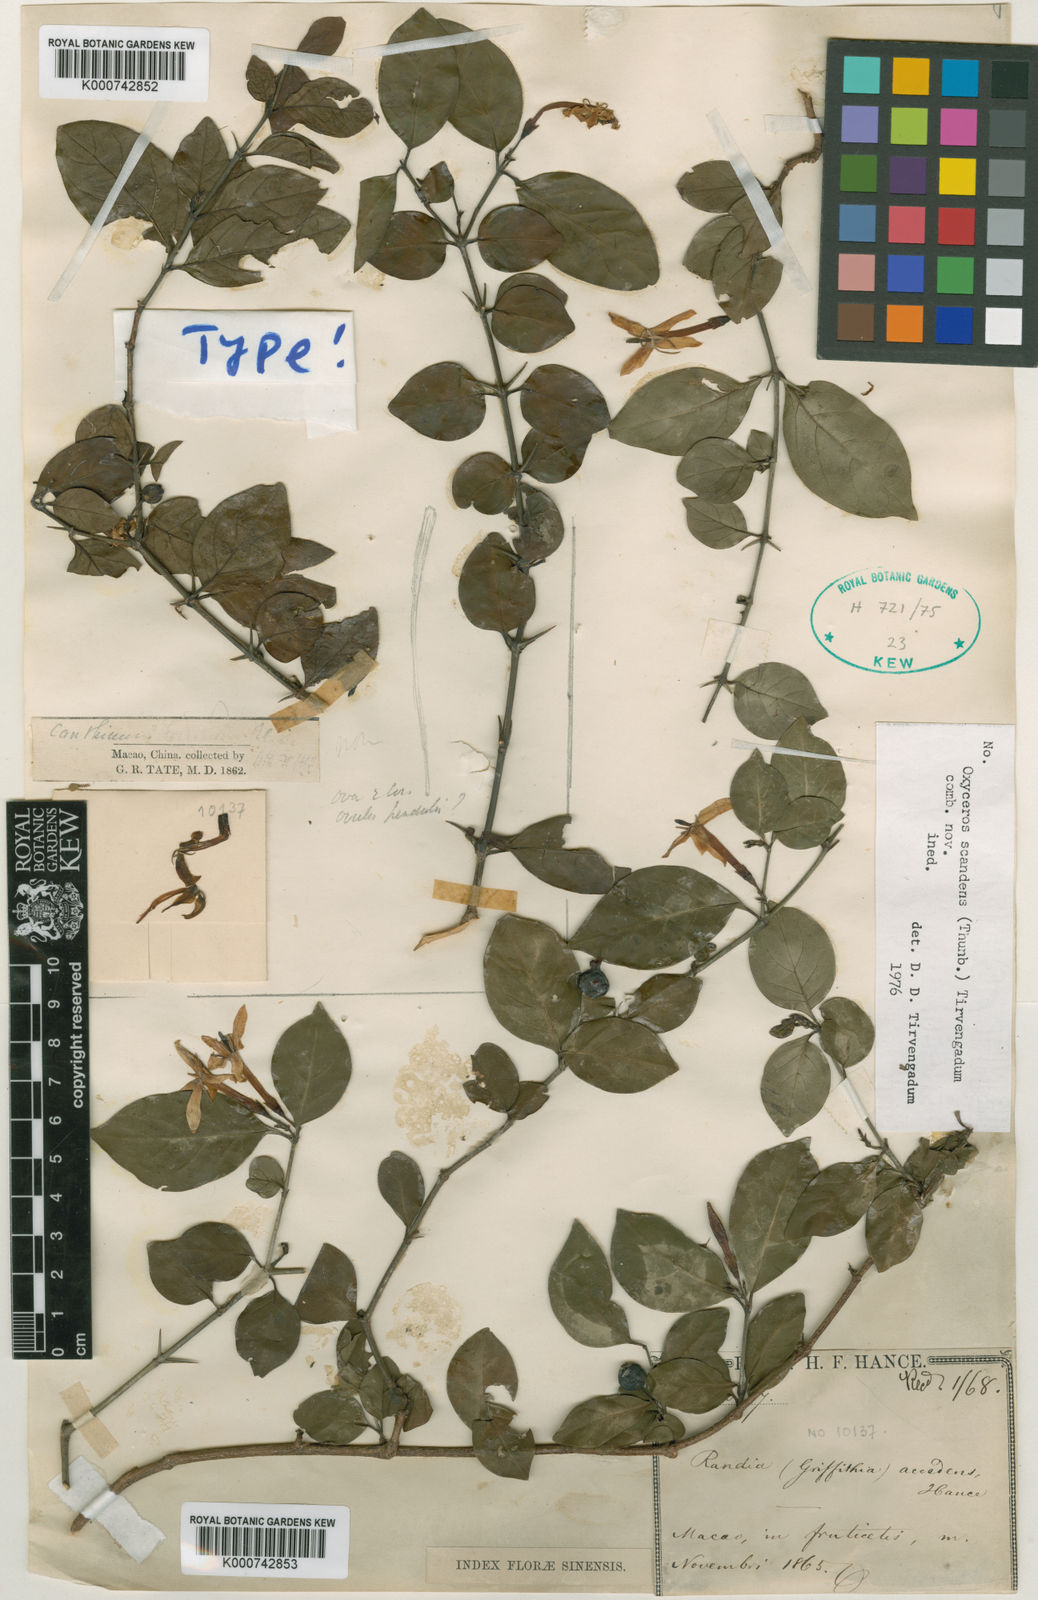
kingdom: Plantae
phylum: Tracheophyta
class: Magnoliopsida
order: Gentianales
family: Rubiaceae
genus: Benkara
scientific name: Benkara scandens
